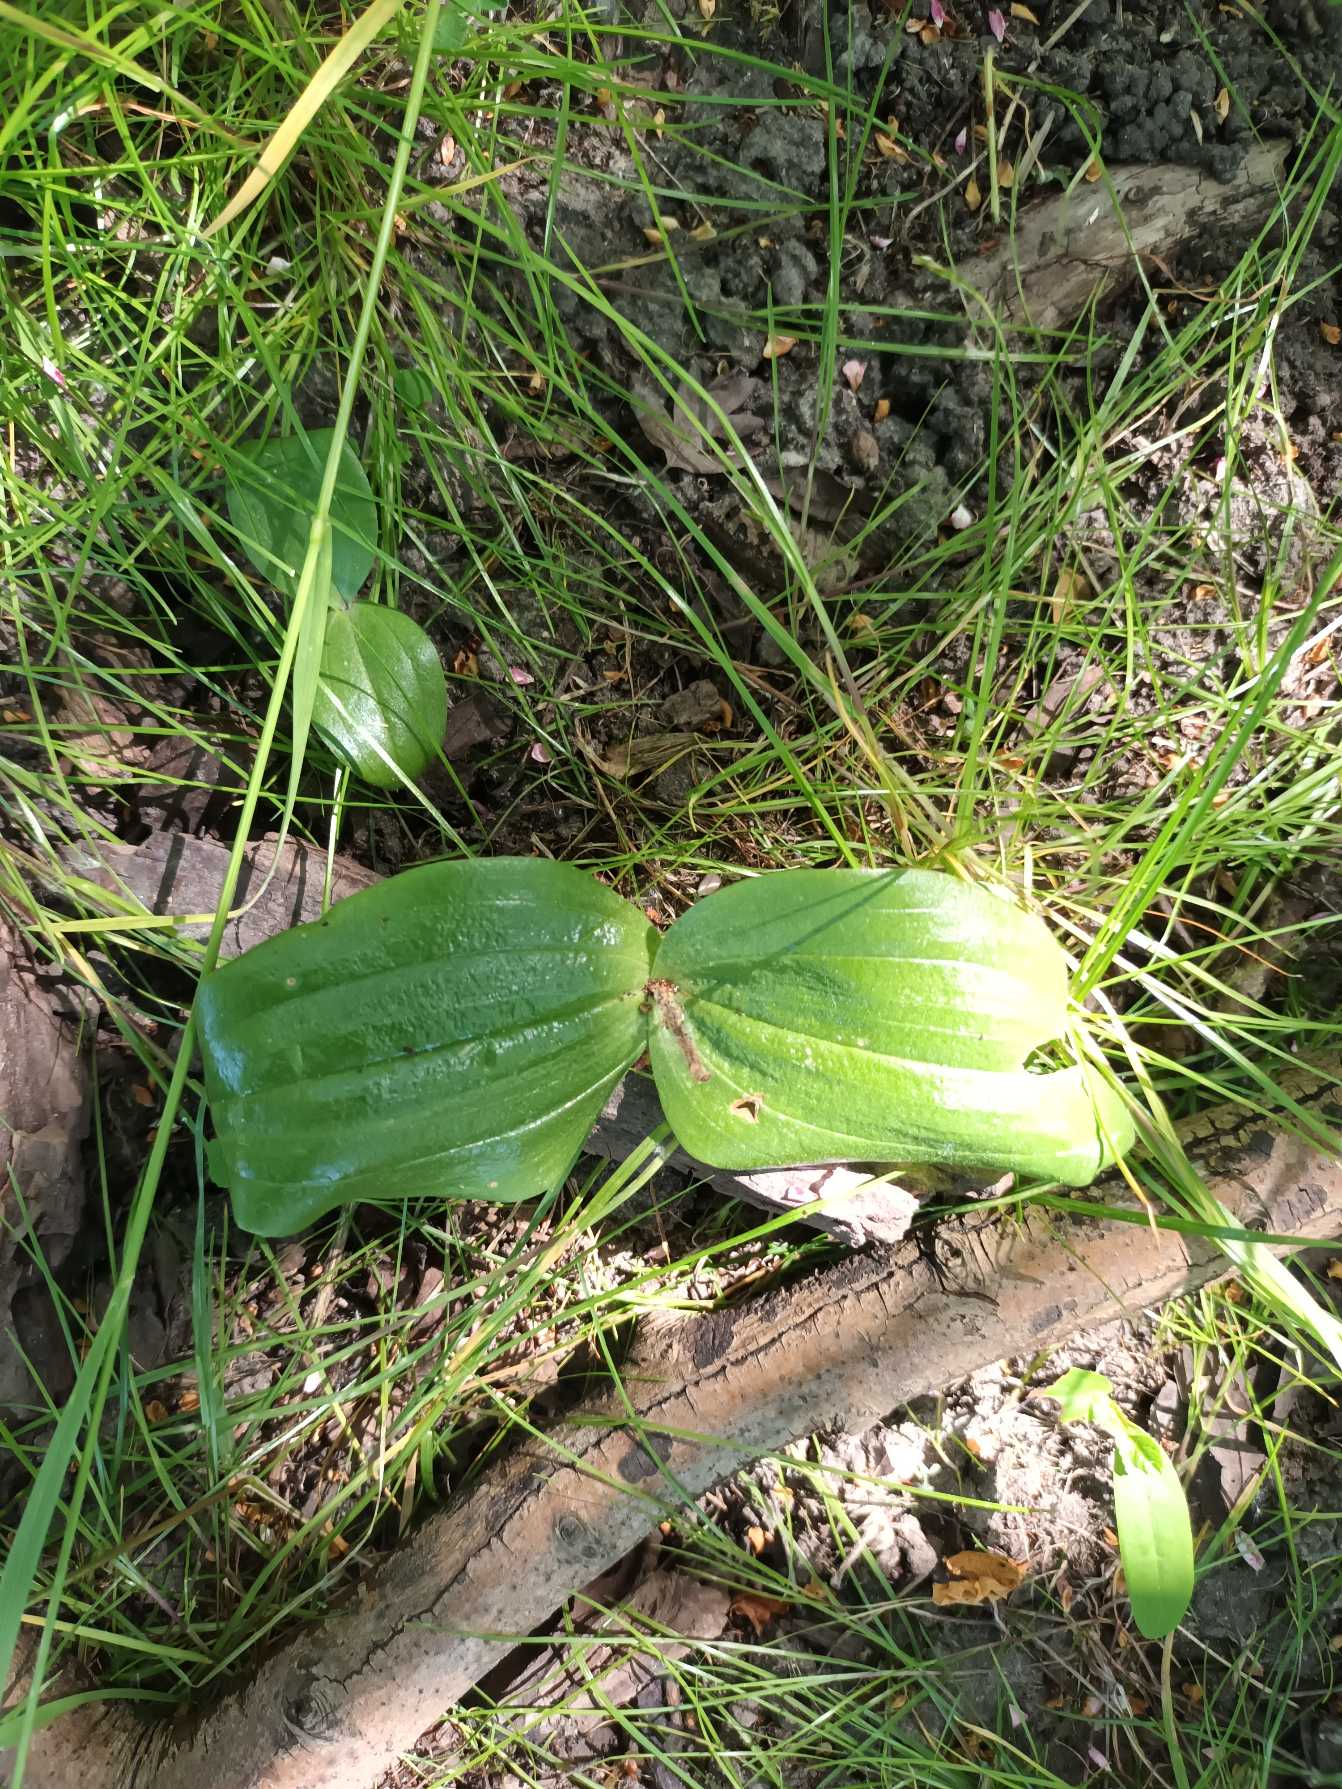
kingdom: Plantae
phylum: Tracheophyta
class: Liliopsida
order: Asparagales
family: Orchidaceae
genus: Neottia
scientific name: Neottia ovata
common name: Ægbladet fliglæbe
